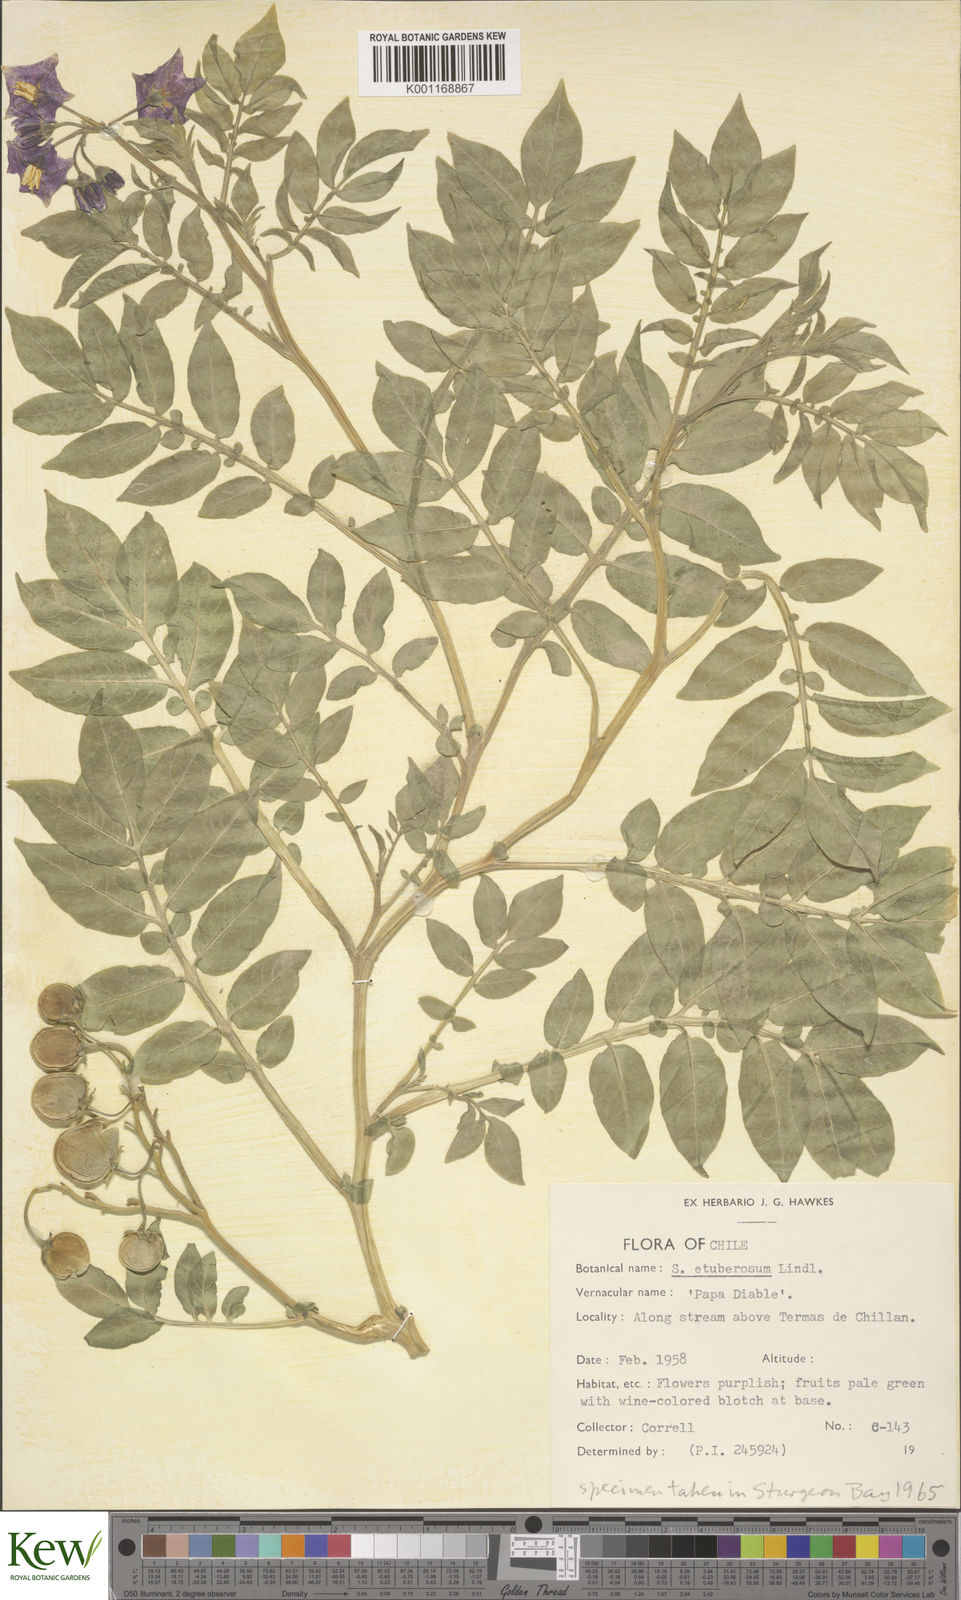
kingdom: Plantae
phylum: Tracheophyta
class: Magnoliopsida
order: Solanales
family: Solanaceae
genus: Solanum
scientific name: Solanum etuberosum
